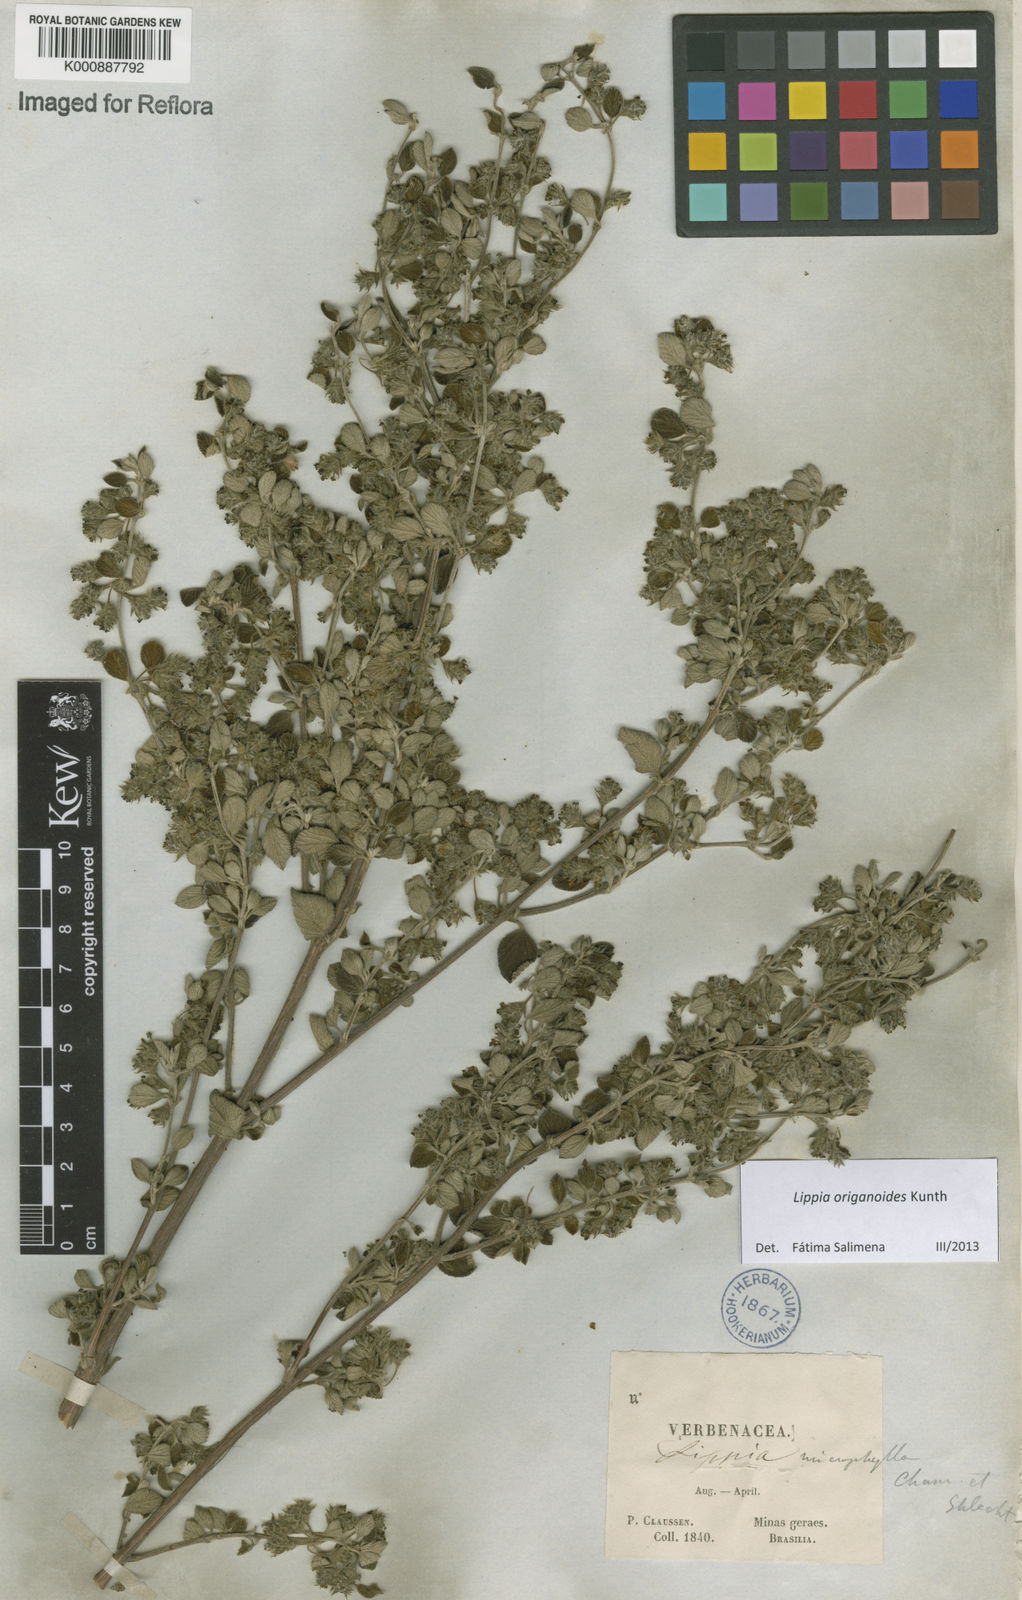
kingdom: Plantae
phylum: Tracheophyta
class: Magnoliopsida
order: Lamiales
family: Verbenaceae
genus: Lippia
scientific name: Lippia origanoides
